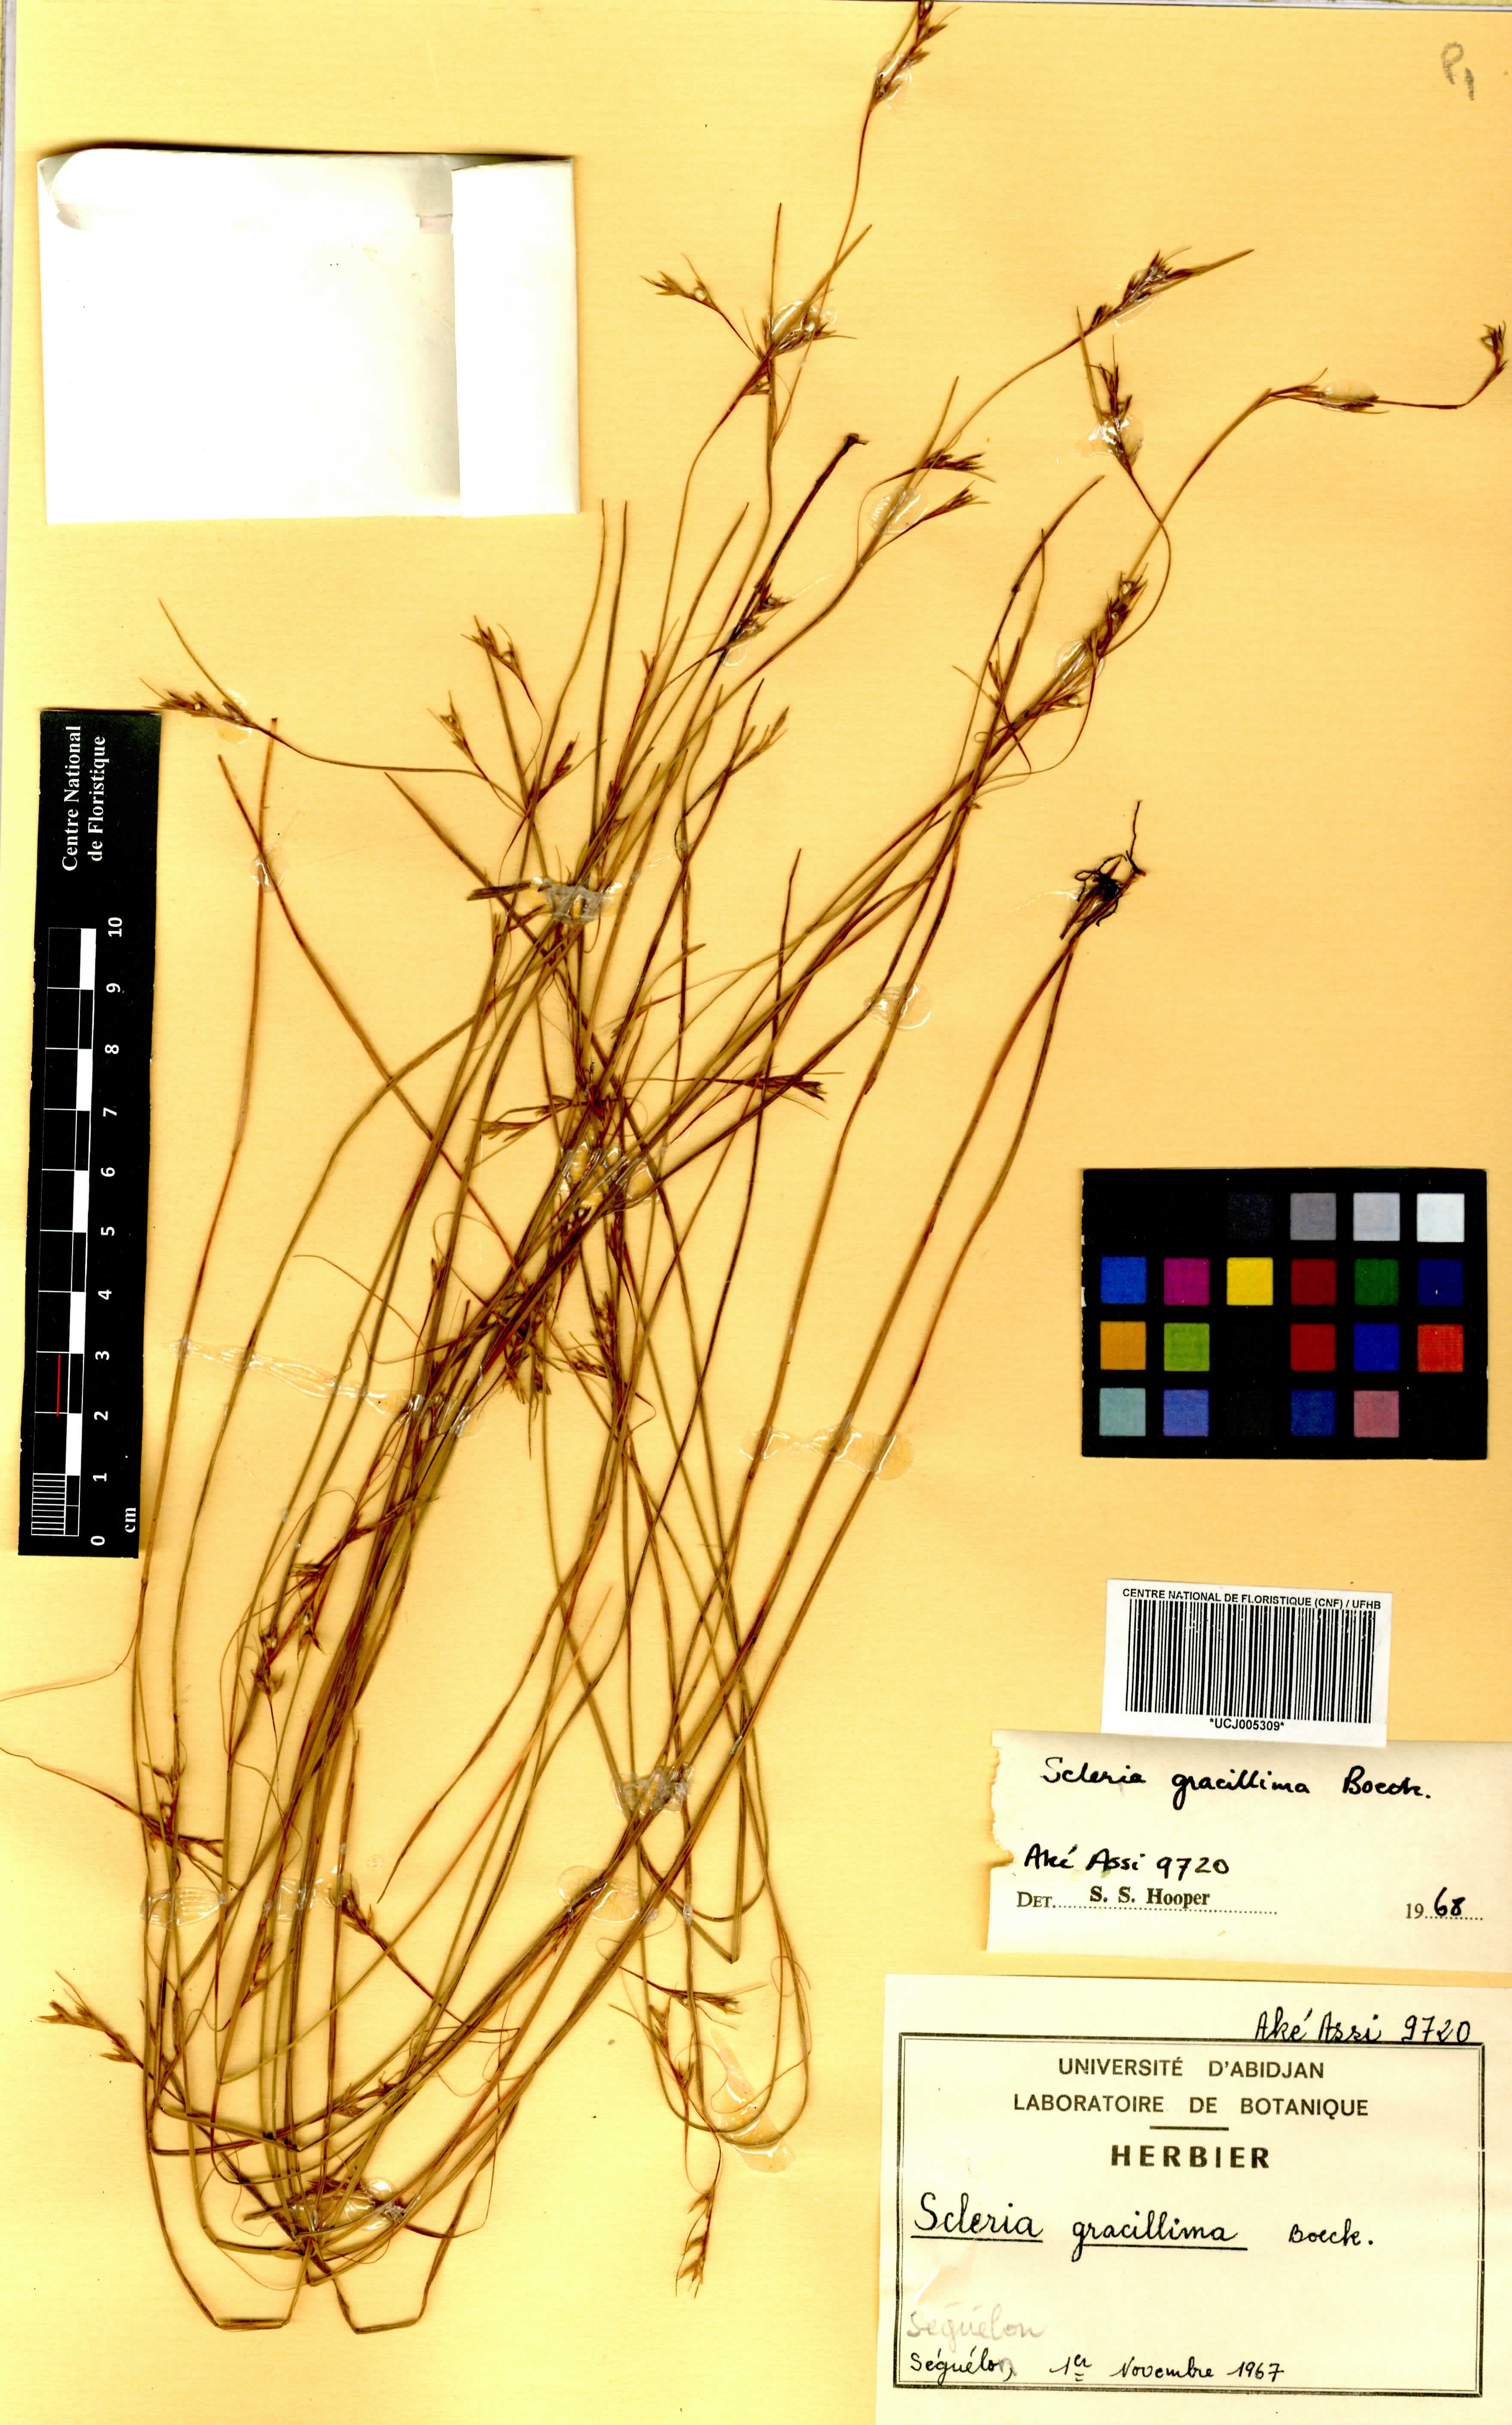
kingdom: Plantae
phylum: Tracheophyta
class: Liliopsida
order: Poales
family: Cyperaceae
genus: Scleria
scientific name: Scleria gracillima
